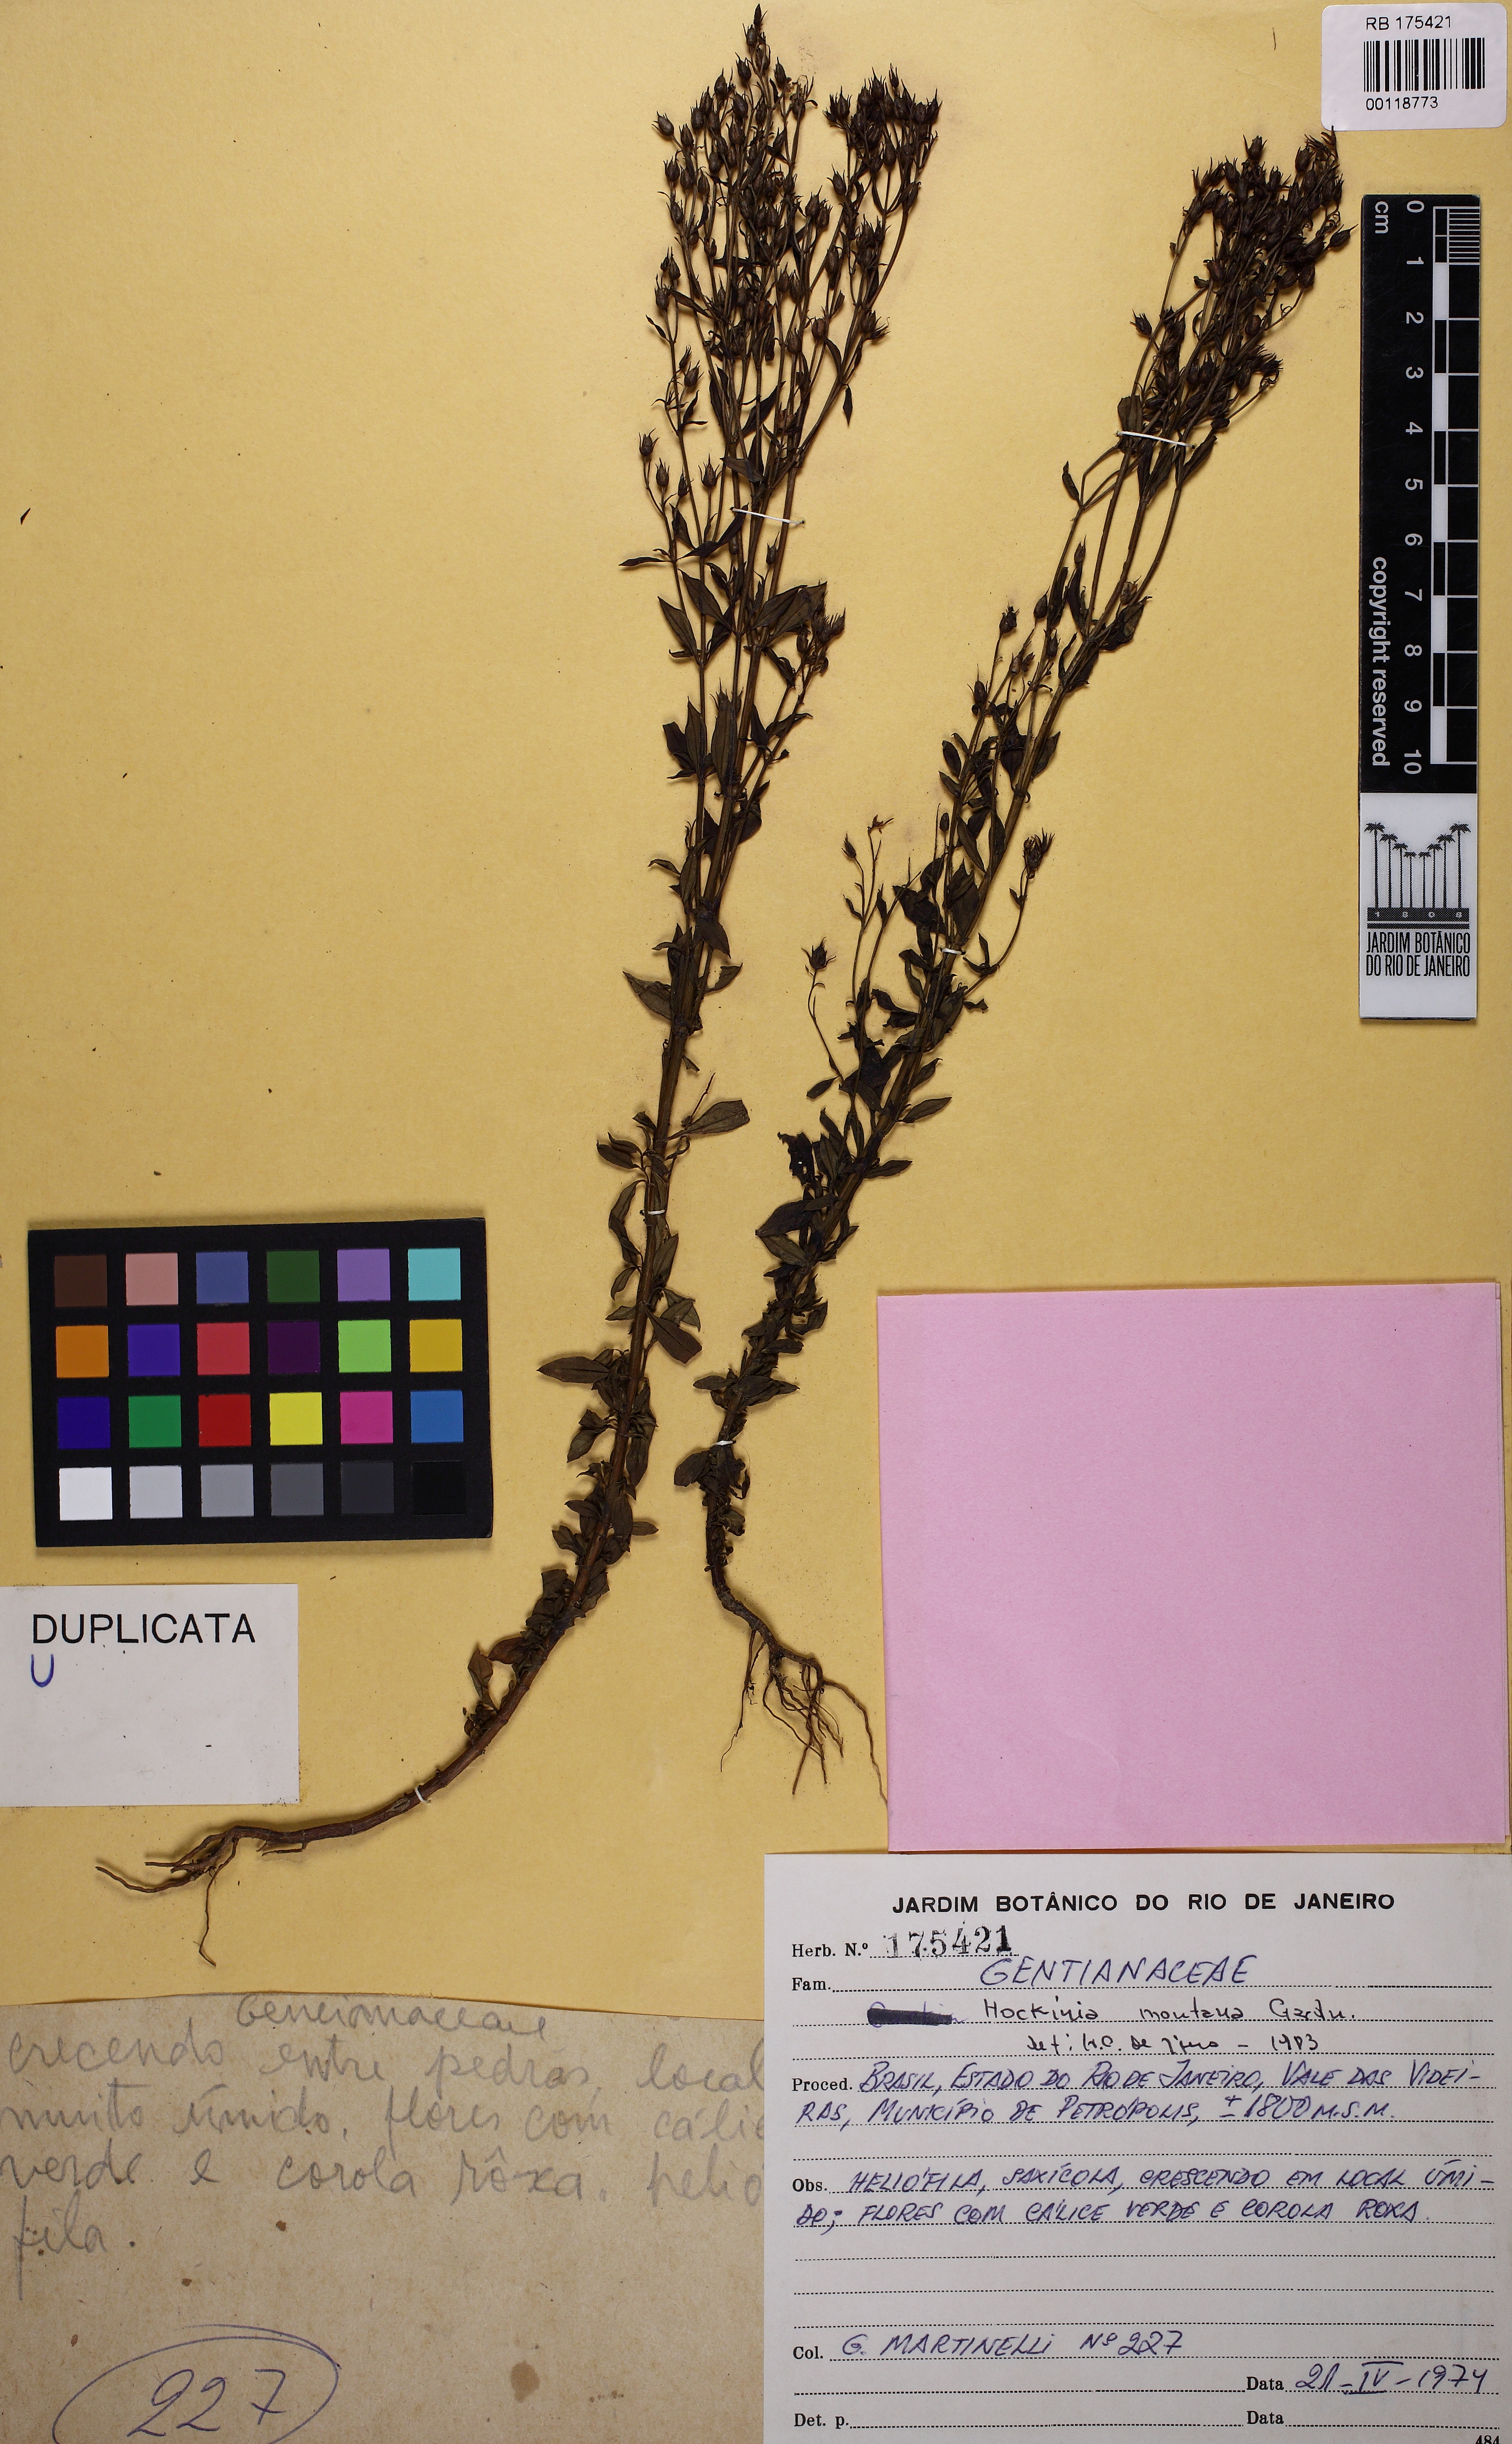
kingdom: Plantae
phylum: Tracheophyta
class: Magnoliopsida
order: Gentianales
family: Gentianaceae
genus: Hockinia
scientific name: Hockinia montana
